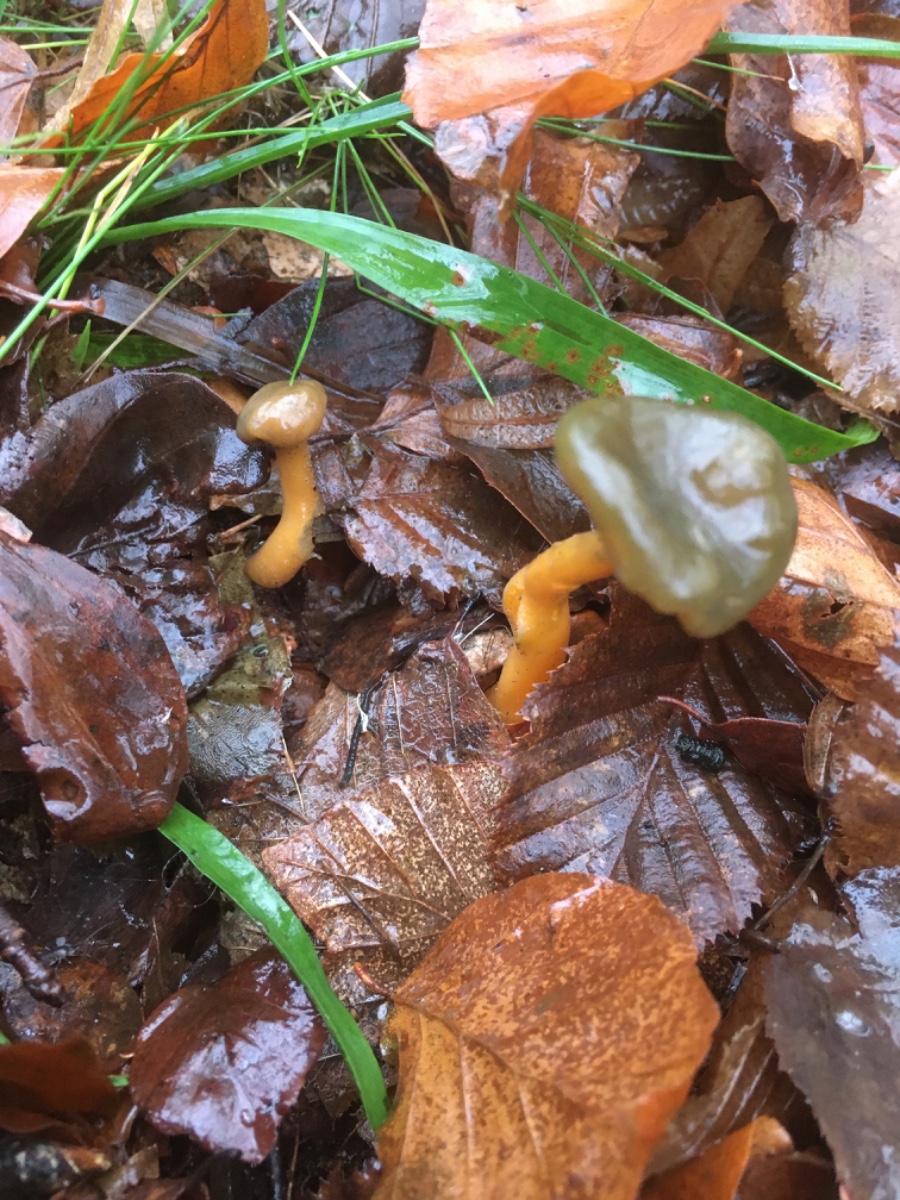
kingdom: Fungi
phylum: Ascomycota
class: Leotiomycetes
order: Leotiales
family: Leotiaceae
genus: Leotia
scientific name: Leotia lubrica
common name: ravsvamp
